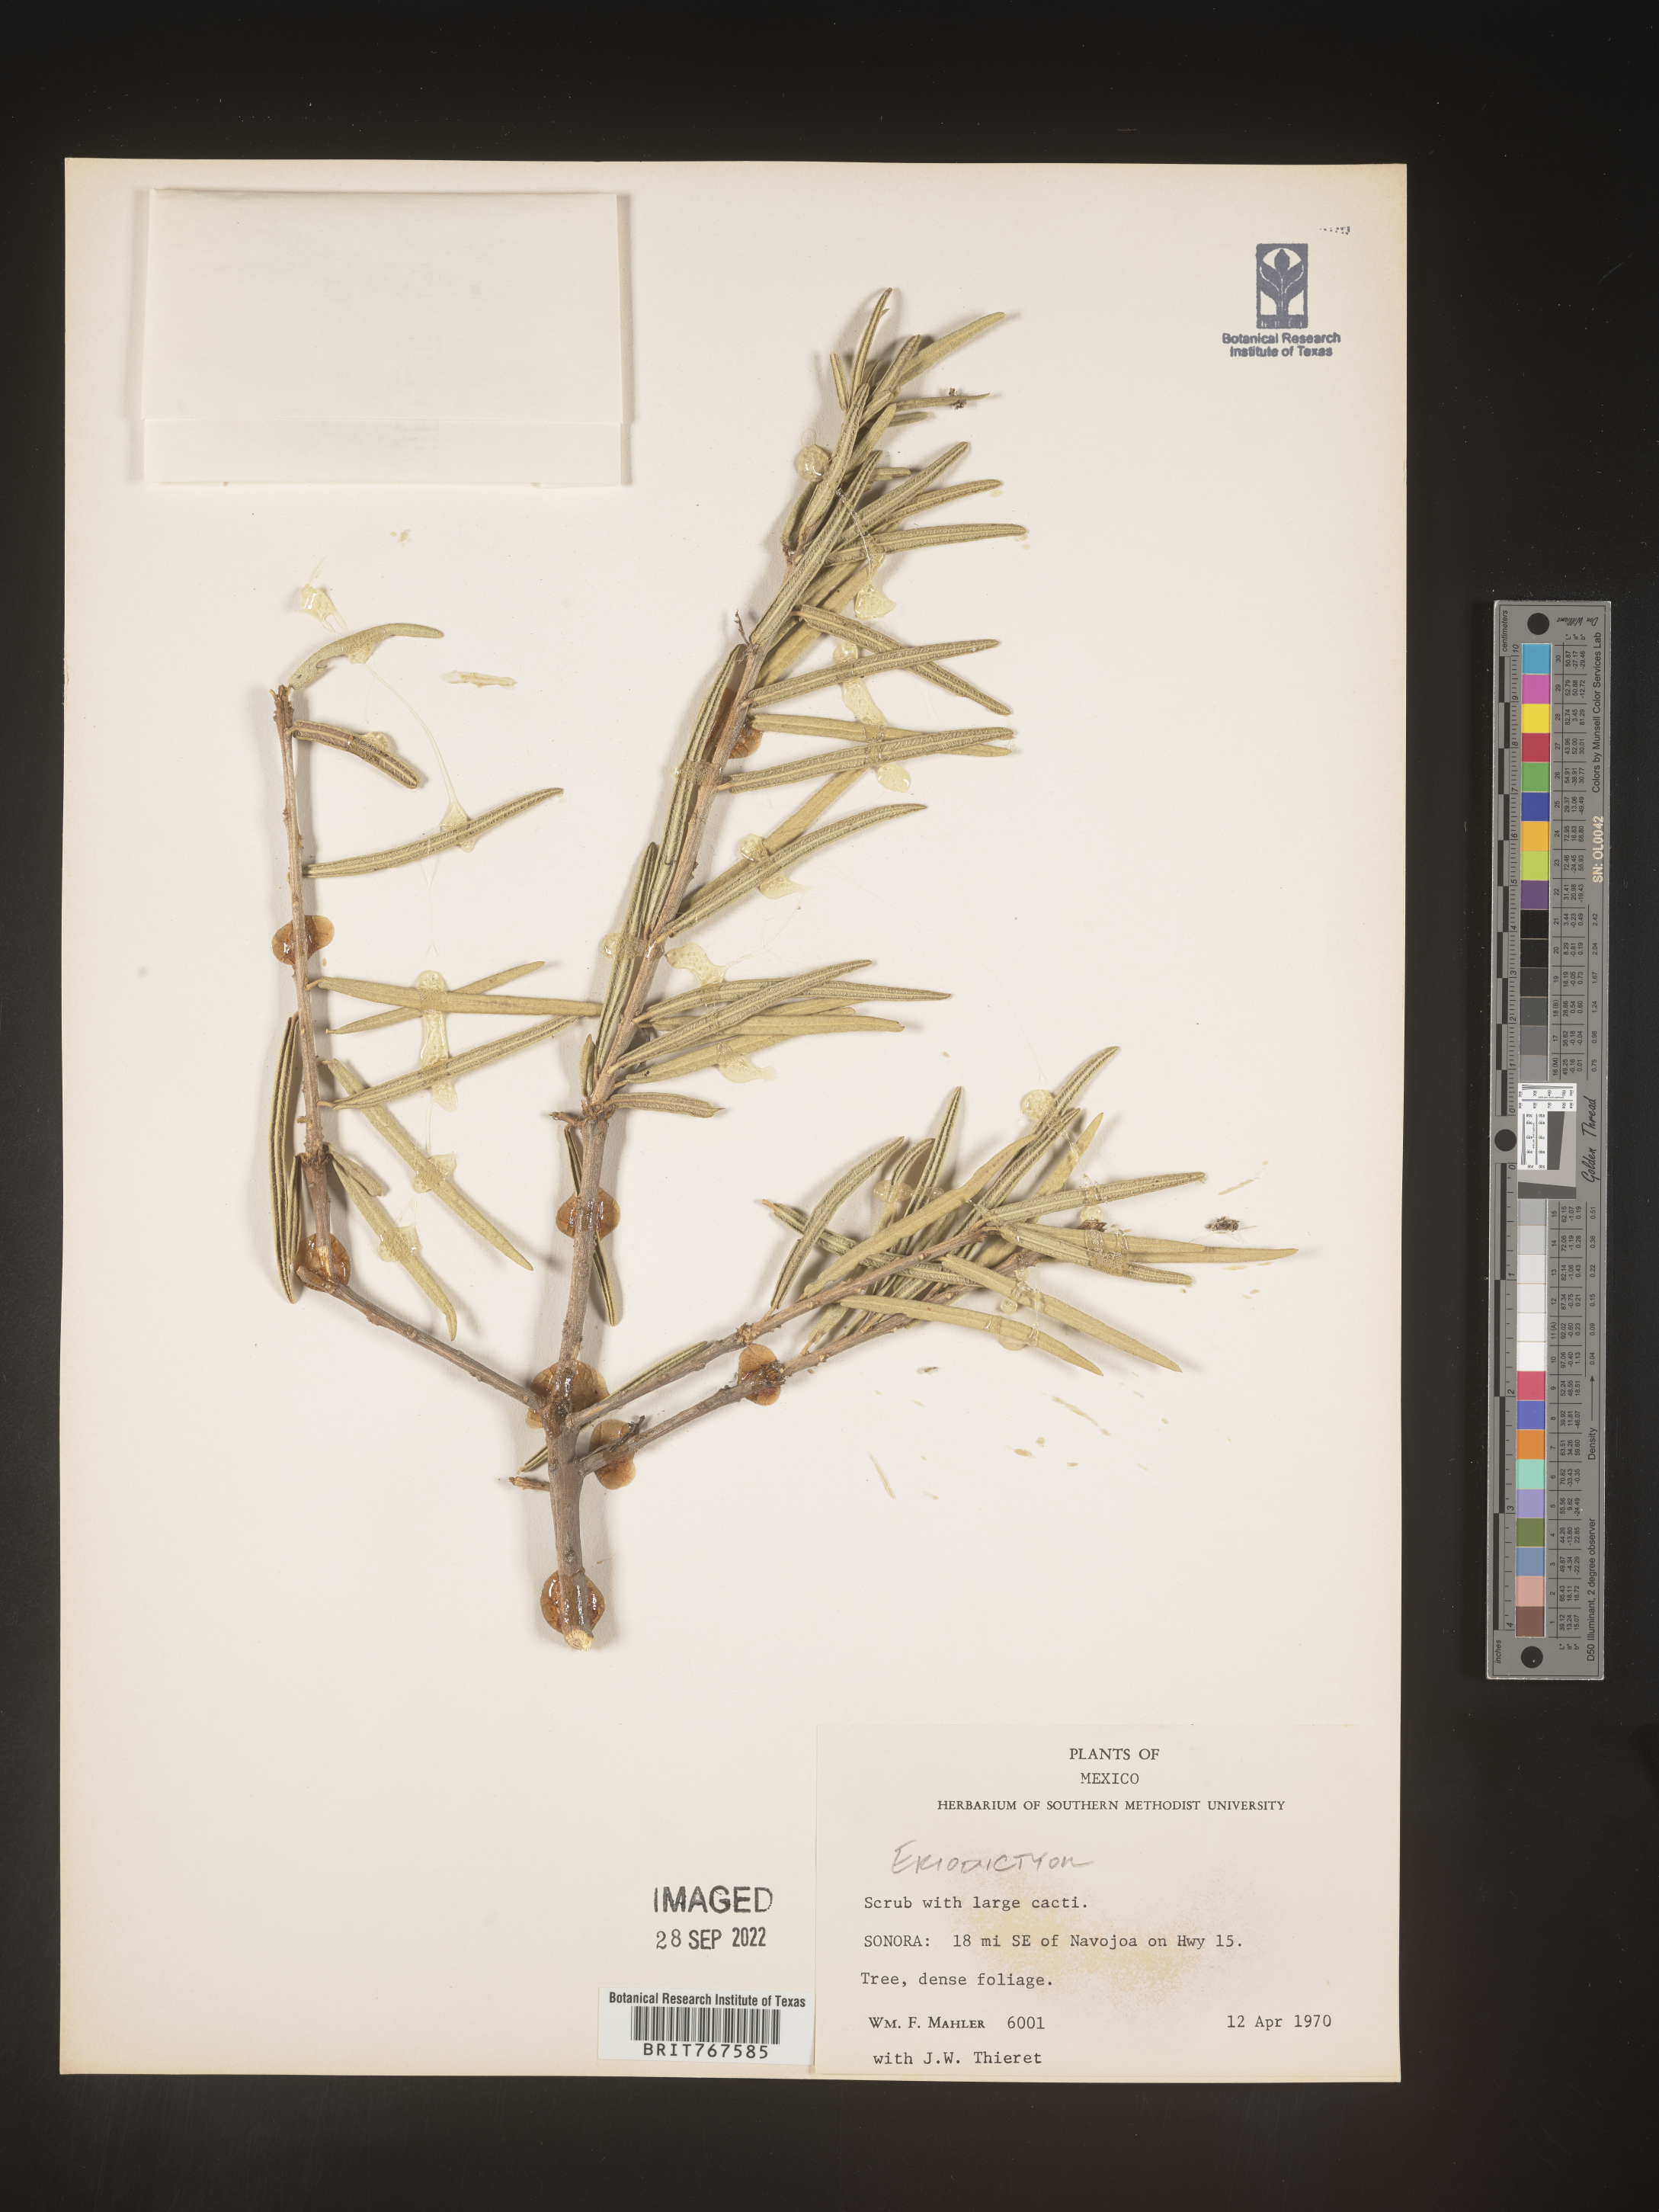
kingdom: Plantae
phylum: Tracheophyta
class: Magnoliopsida
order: Boraginales
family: Namaceae
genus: Eriodictyon
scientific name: Eriodictyon
